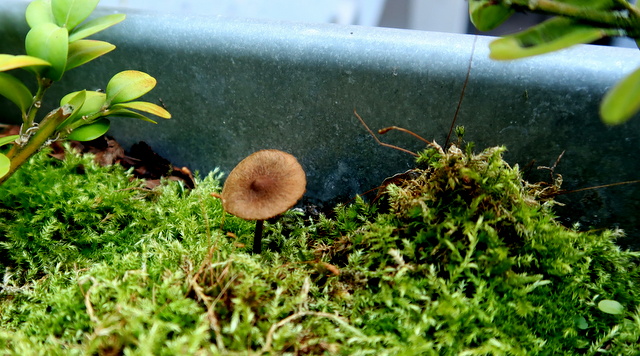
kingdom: Fungi
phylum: Basidiomycota
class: Agaricomycetes
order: Agaricales
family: Inocybaceae
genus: Inocybe
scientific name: Inocybe helobia
